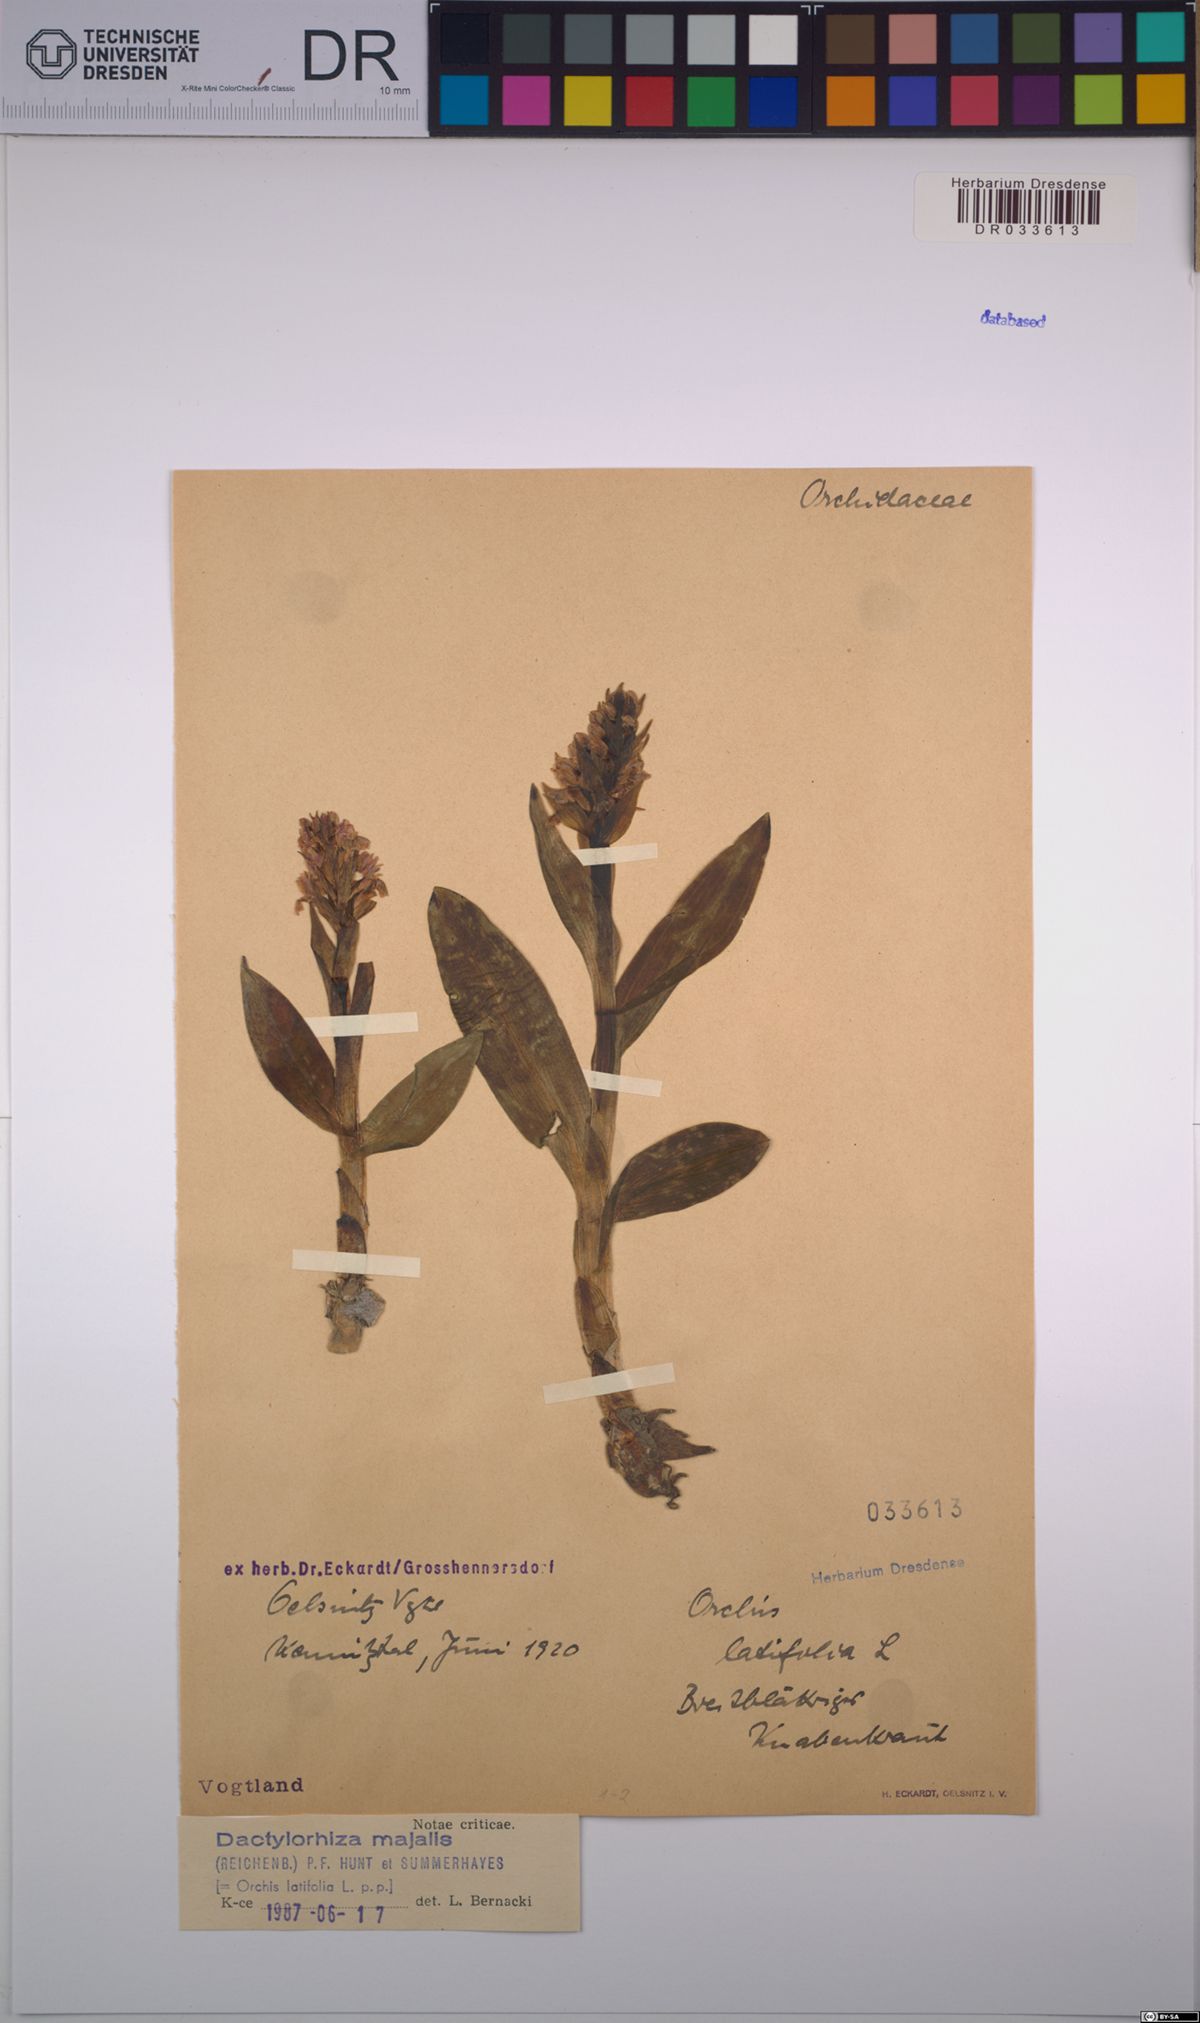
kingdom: Plantae
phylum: Tracheophyta
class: Liliopsida
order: Asparagales
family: Orchidaceae
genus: Dactylorhiza
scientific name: Dactylorhiza majalis
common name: Marsh orchid
